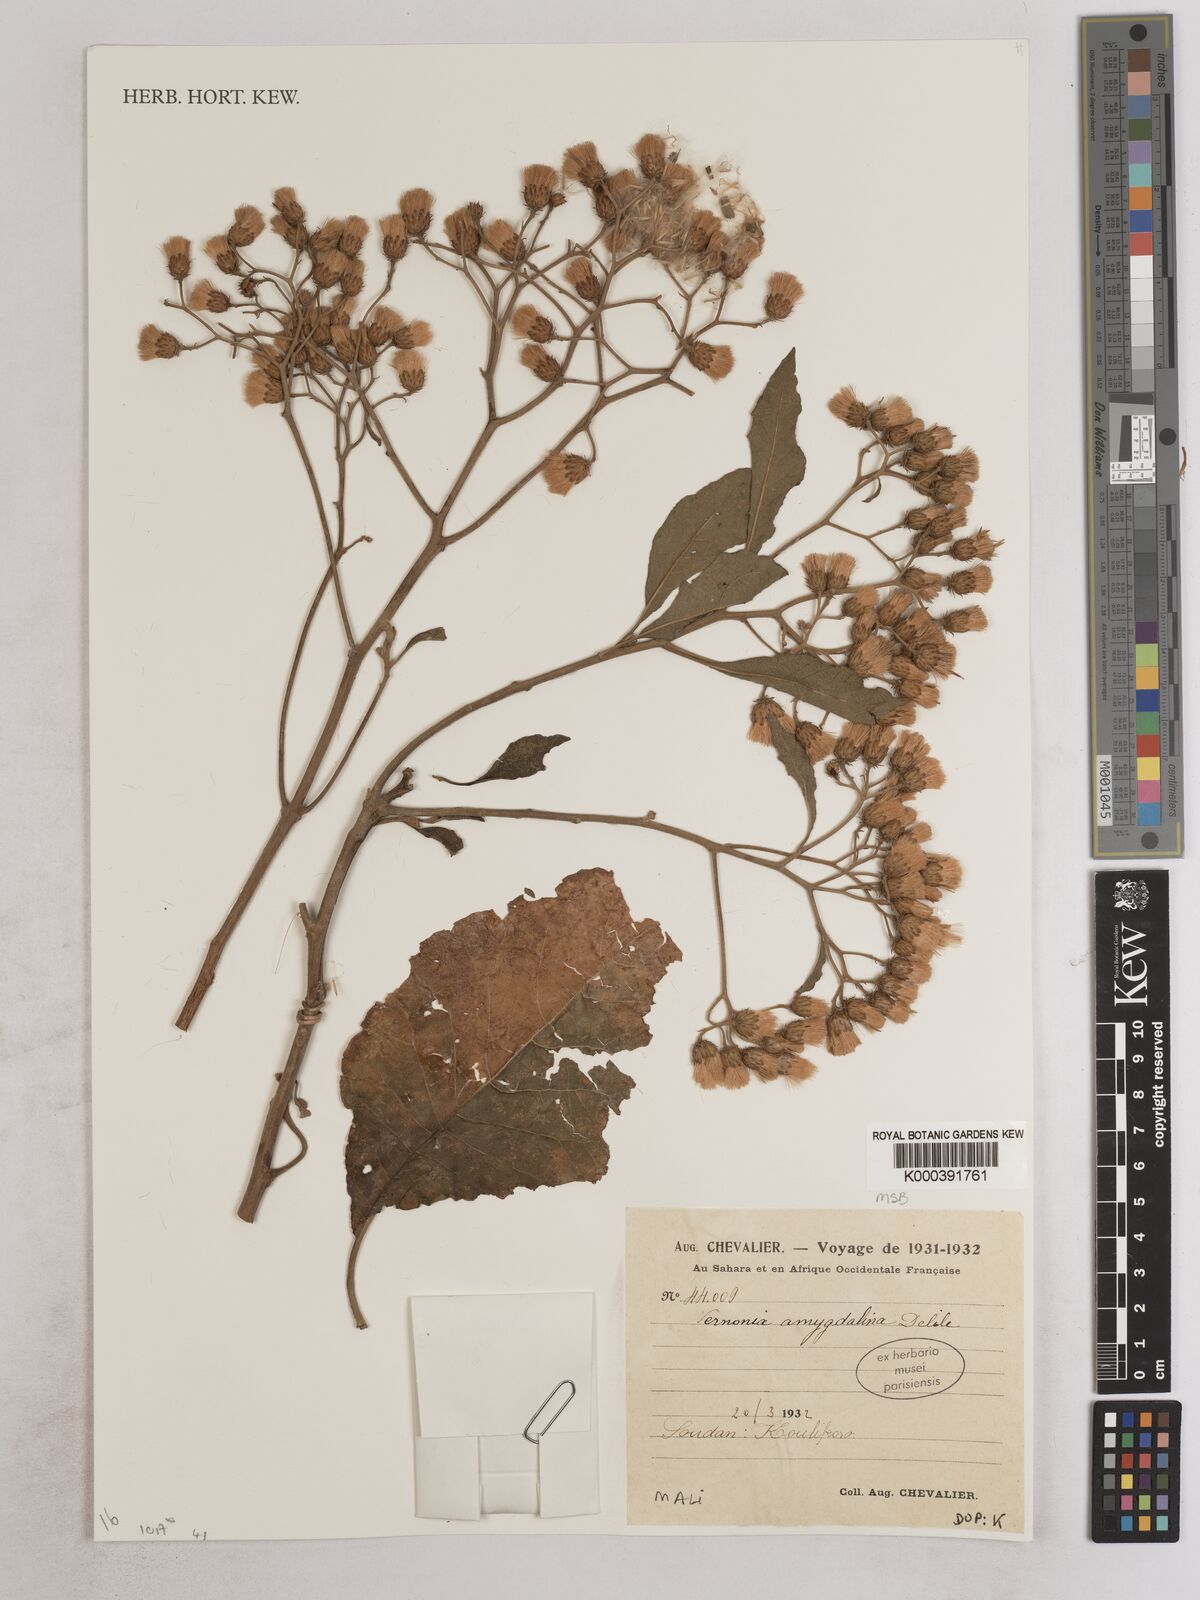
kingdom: Plantae
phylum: Tracheophyta
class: Magnoliopsida
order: Asterales
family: Asteraceae
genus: Gymnanthemum
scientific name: Gymnanthemum amygdalinum
